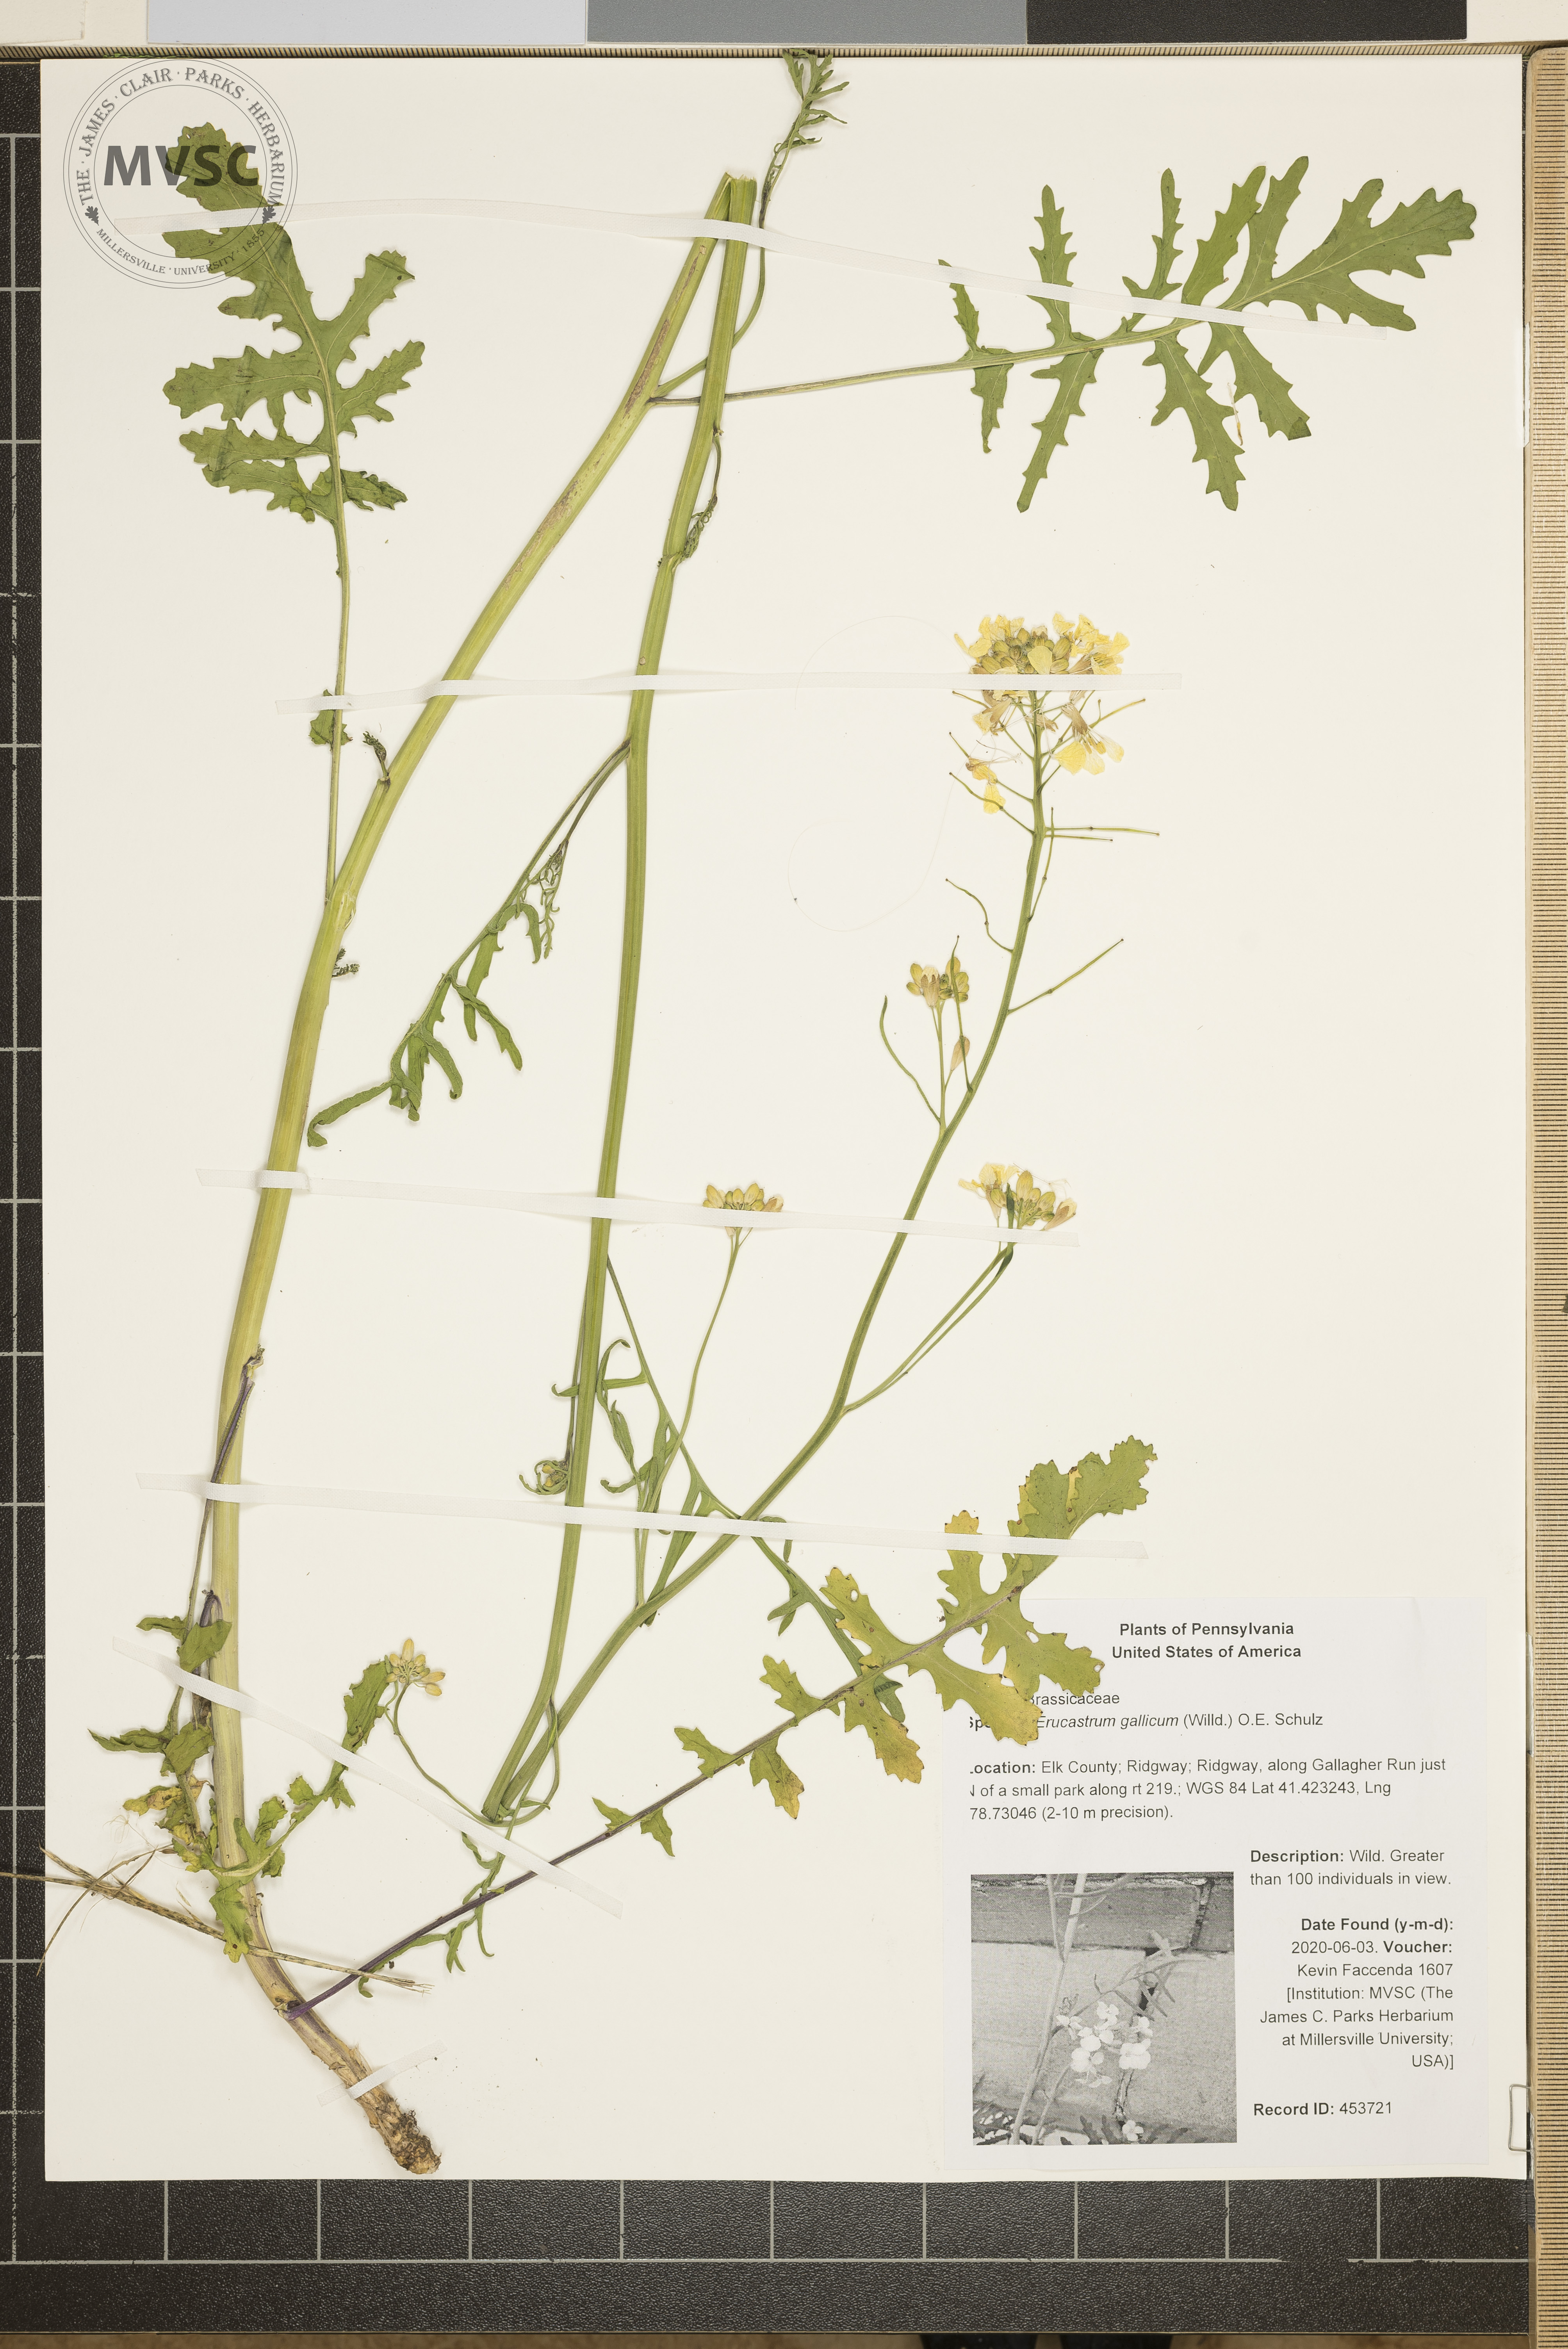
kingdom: Plantae
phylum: Tracheophyta
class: Magnoliopsida
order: Brassicales
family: Brassicaceae
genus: Erucastrum
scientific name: Erucastrum gallicum
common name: Hairy rocket
